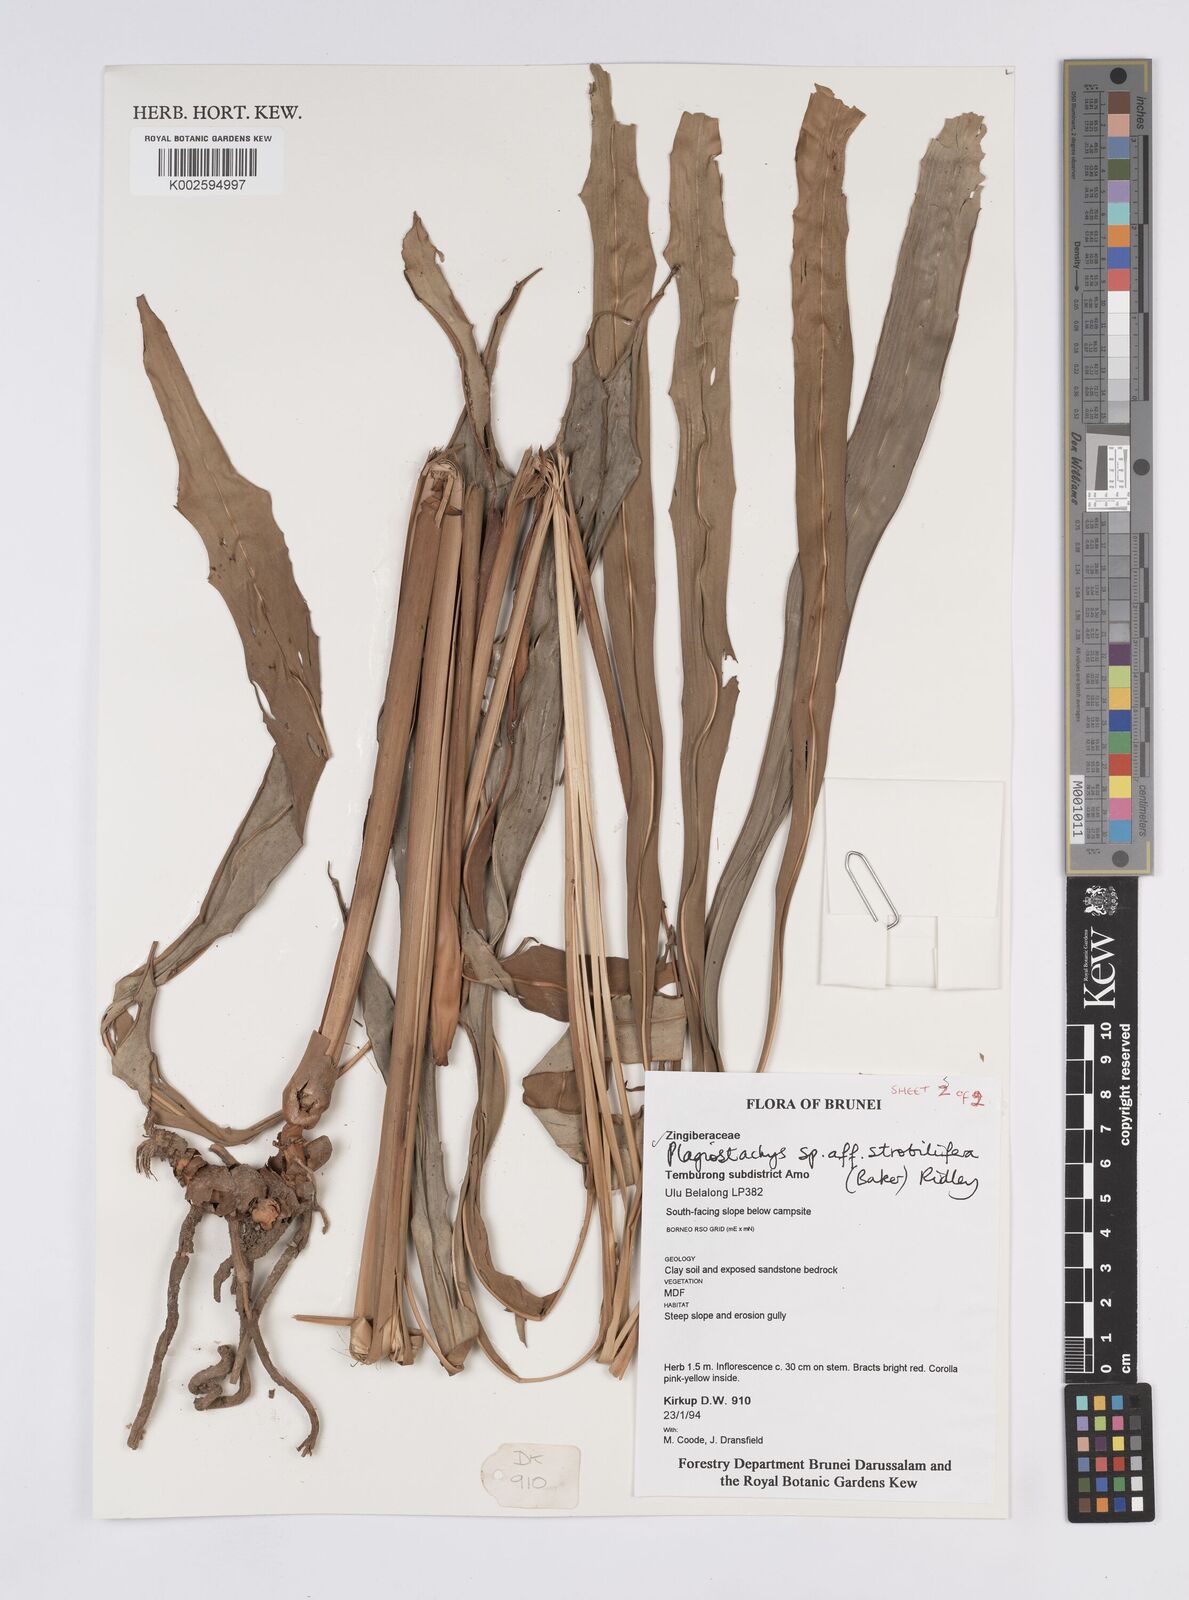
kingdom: Plantae
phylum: Tracheophyta
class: Liliopsida
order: Zingiberales
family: Zingiberaceae
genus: Plagiostachys
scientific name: Plagiostachys strobilifera
